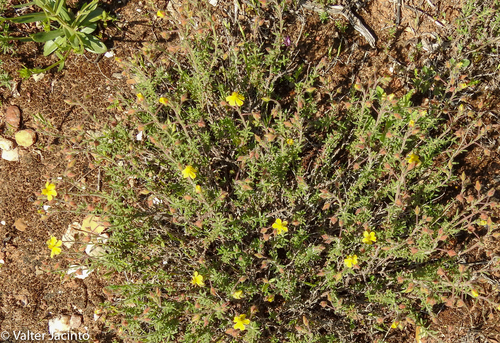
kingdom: Plantae
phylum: Tracheophyta
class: Magnoliopsida
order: Malvales
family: Cistaceae
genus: Fumana
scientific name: Fumana thymifolia
